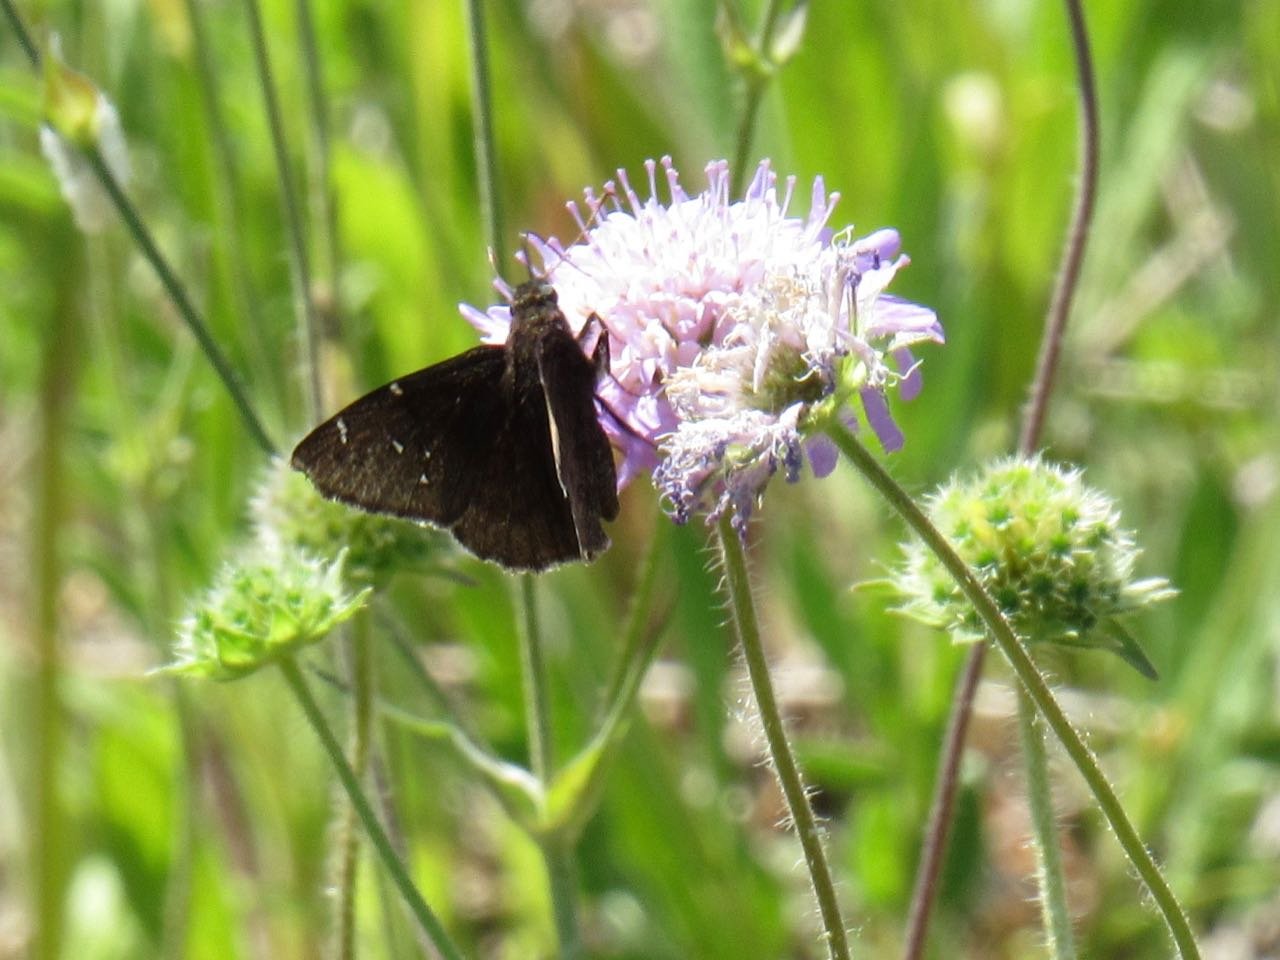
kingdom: Animalia
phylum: Arthropoda
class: Insecta
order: Lepidoptera
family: Hesperiidae
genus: Autochton
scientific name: Autochton
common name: Northern Cloudywing
